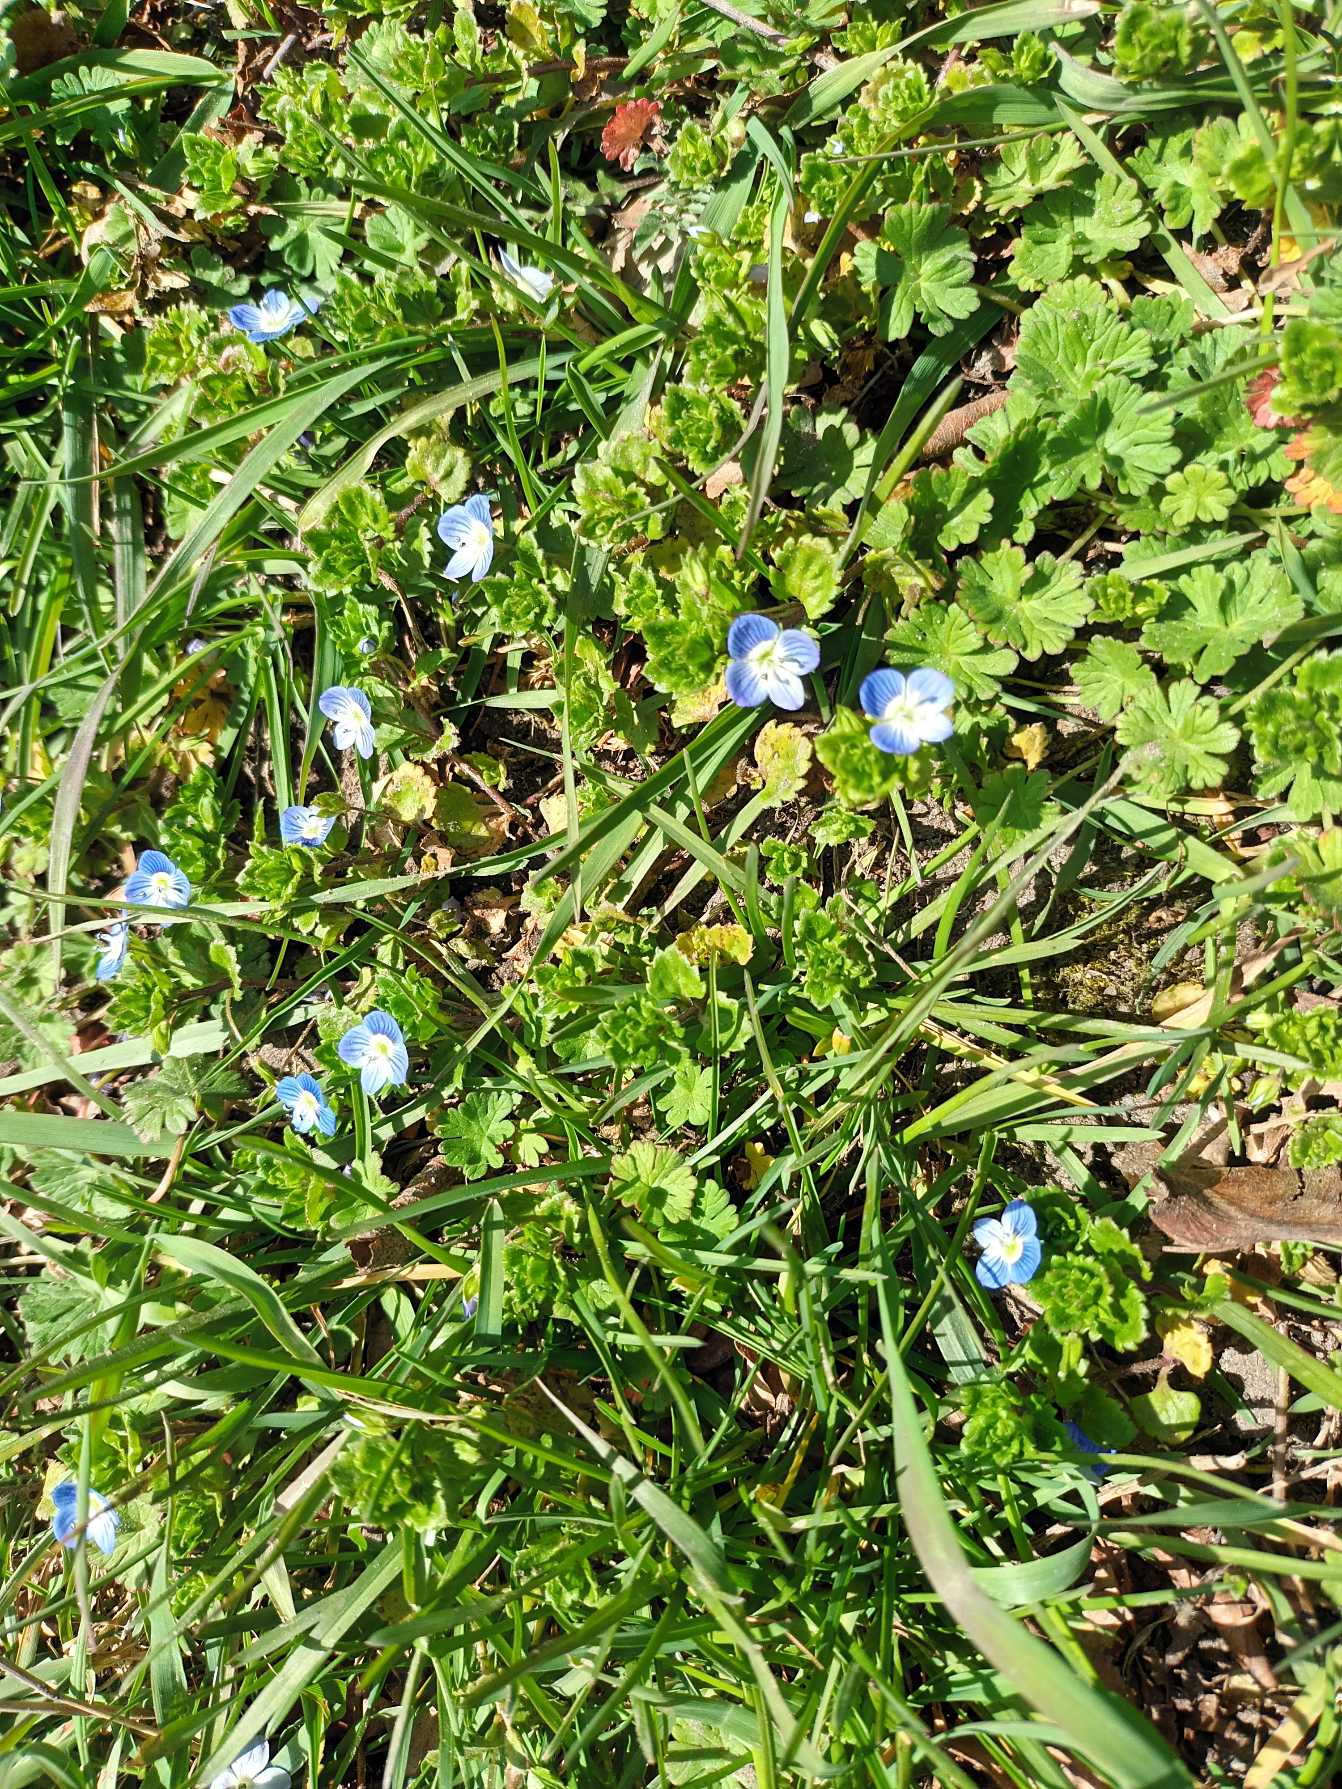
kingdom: Plantae
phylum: Tracheophyta
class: Magnoliopsida
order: Lamiales
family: Plantaginaceae
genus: Veronica
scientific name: Veronica persica
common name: Storkronet ærenpris
